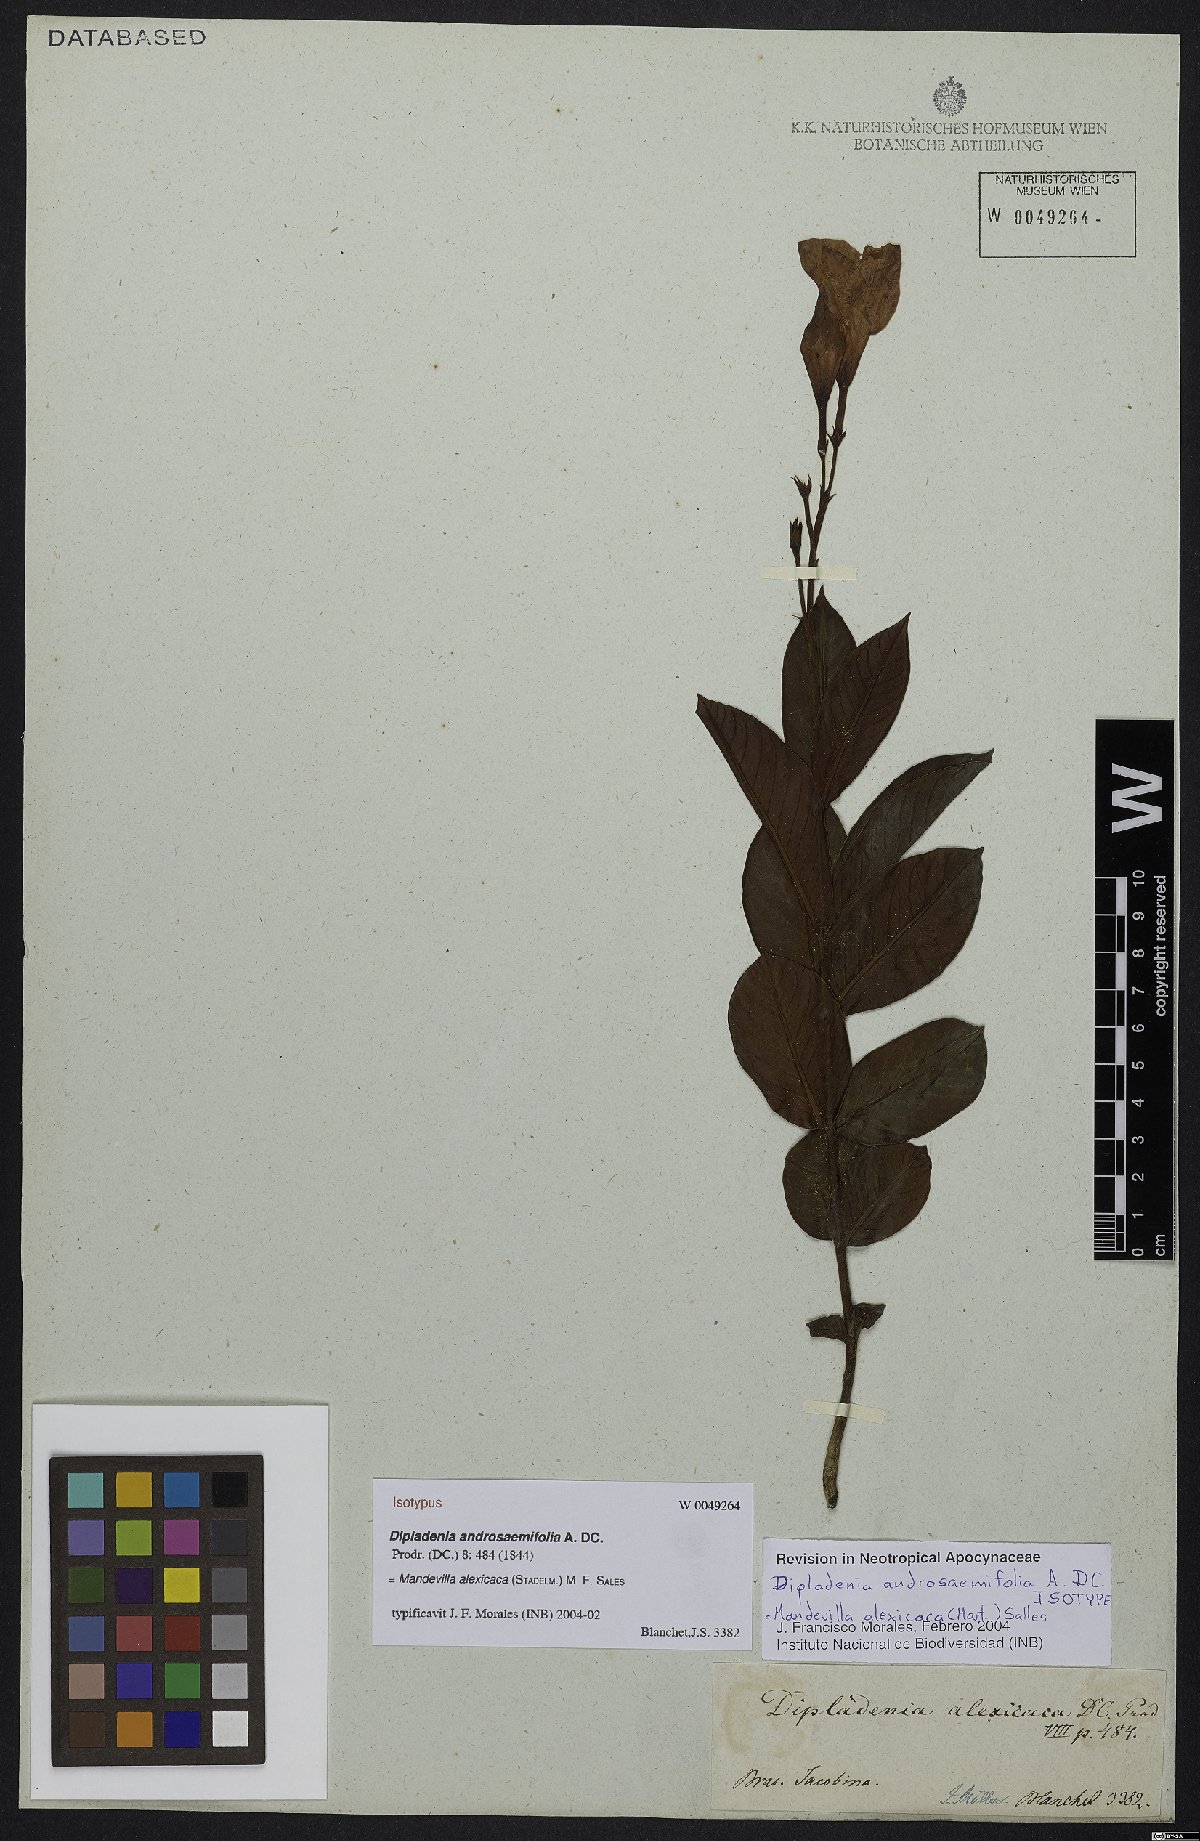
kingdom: Plantae
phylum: Tracheophyta
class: Magnoliopsida
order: Gentianales
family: Apocynaceae
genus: Mandevilla
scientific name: Mandevilla alexicaca
